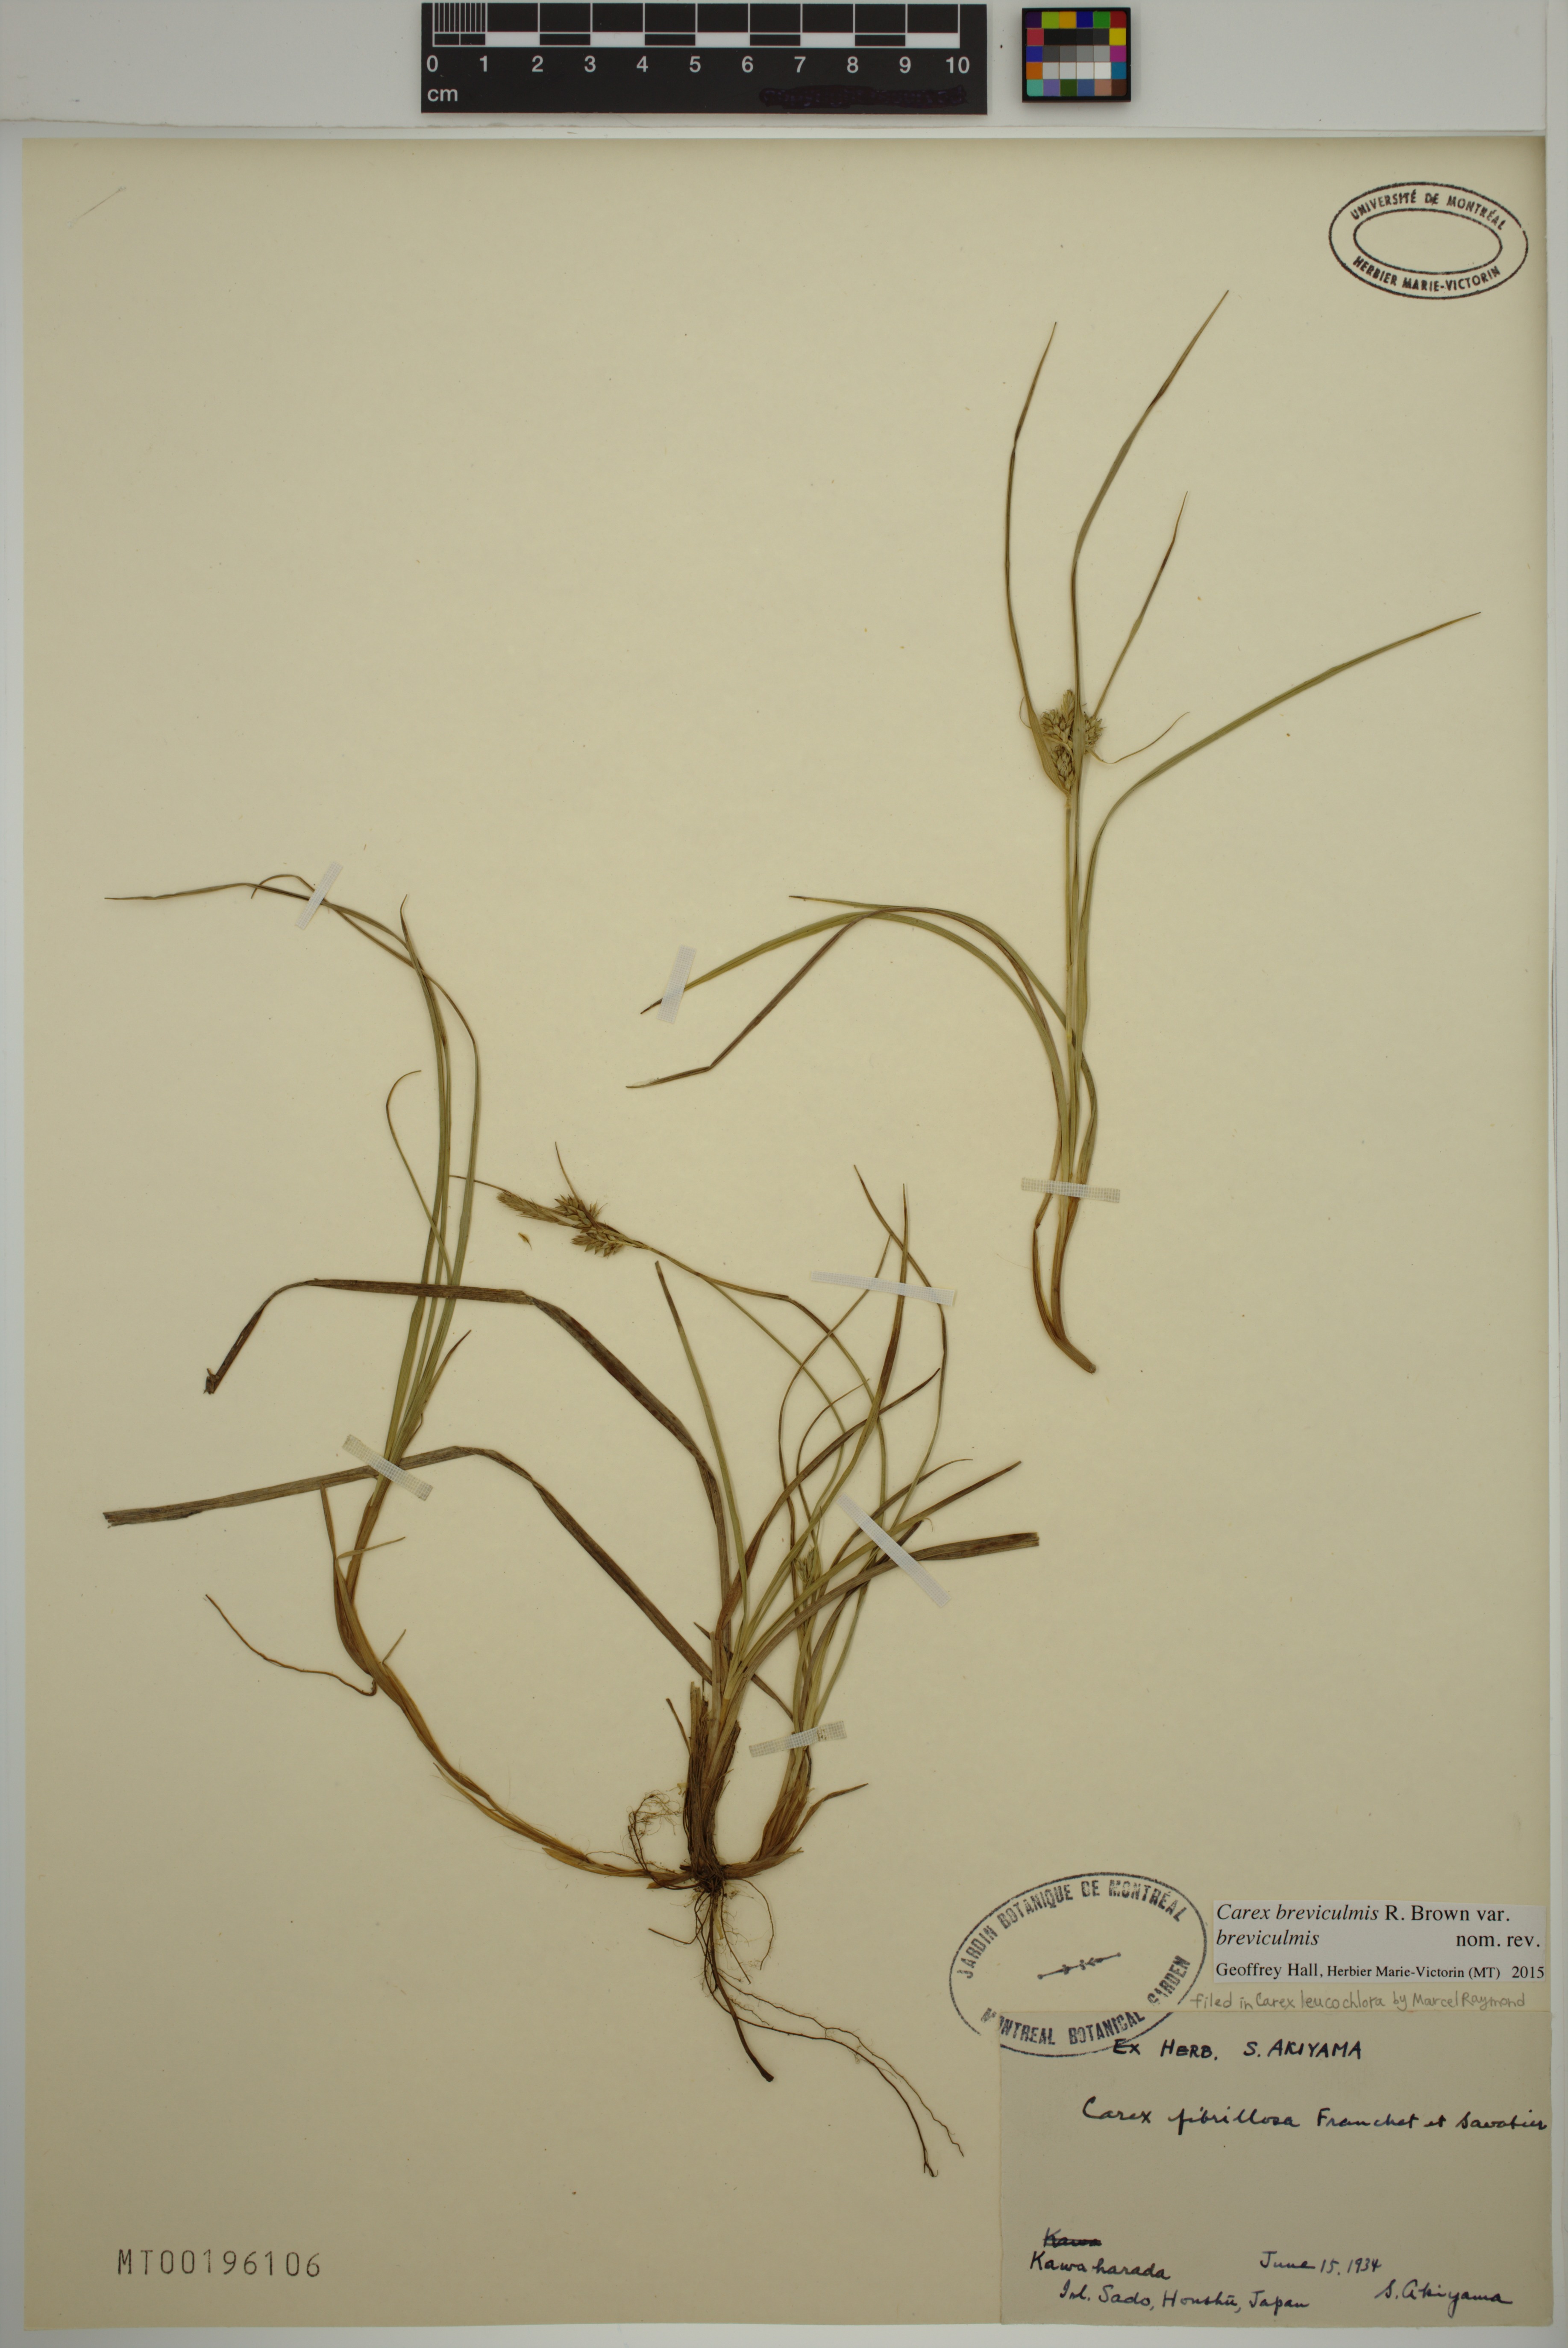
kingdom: Plantae
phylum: Tracheophyta
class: Liliopsida
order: Poales
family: Cyperaceae
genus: Carex
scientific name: Carex breviculmis
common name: Asian shortstem sedge
